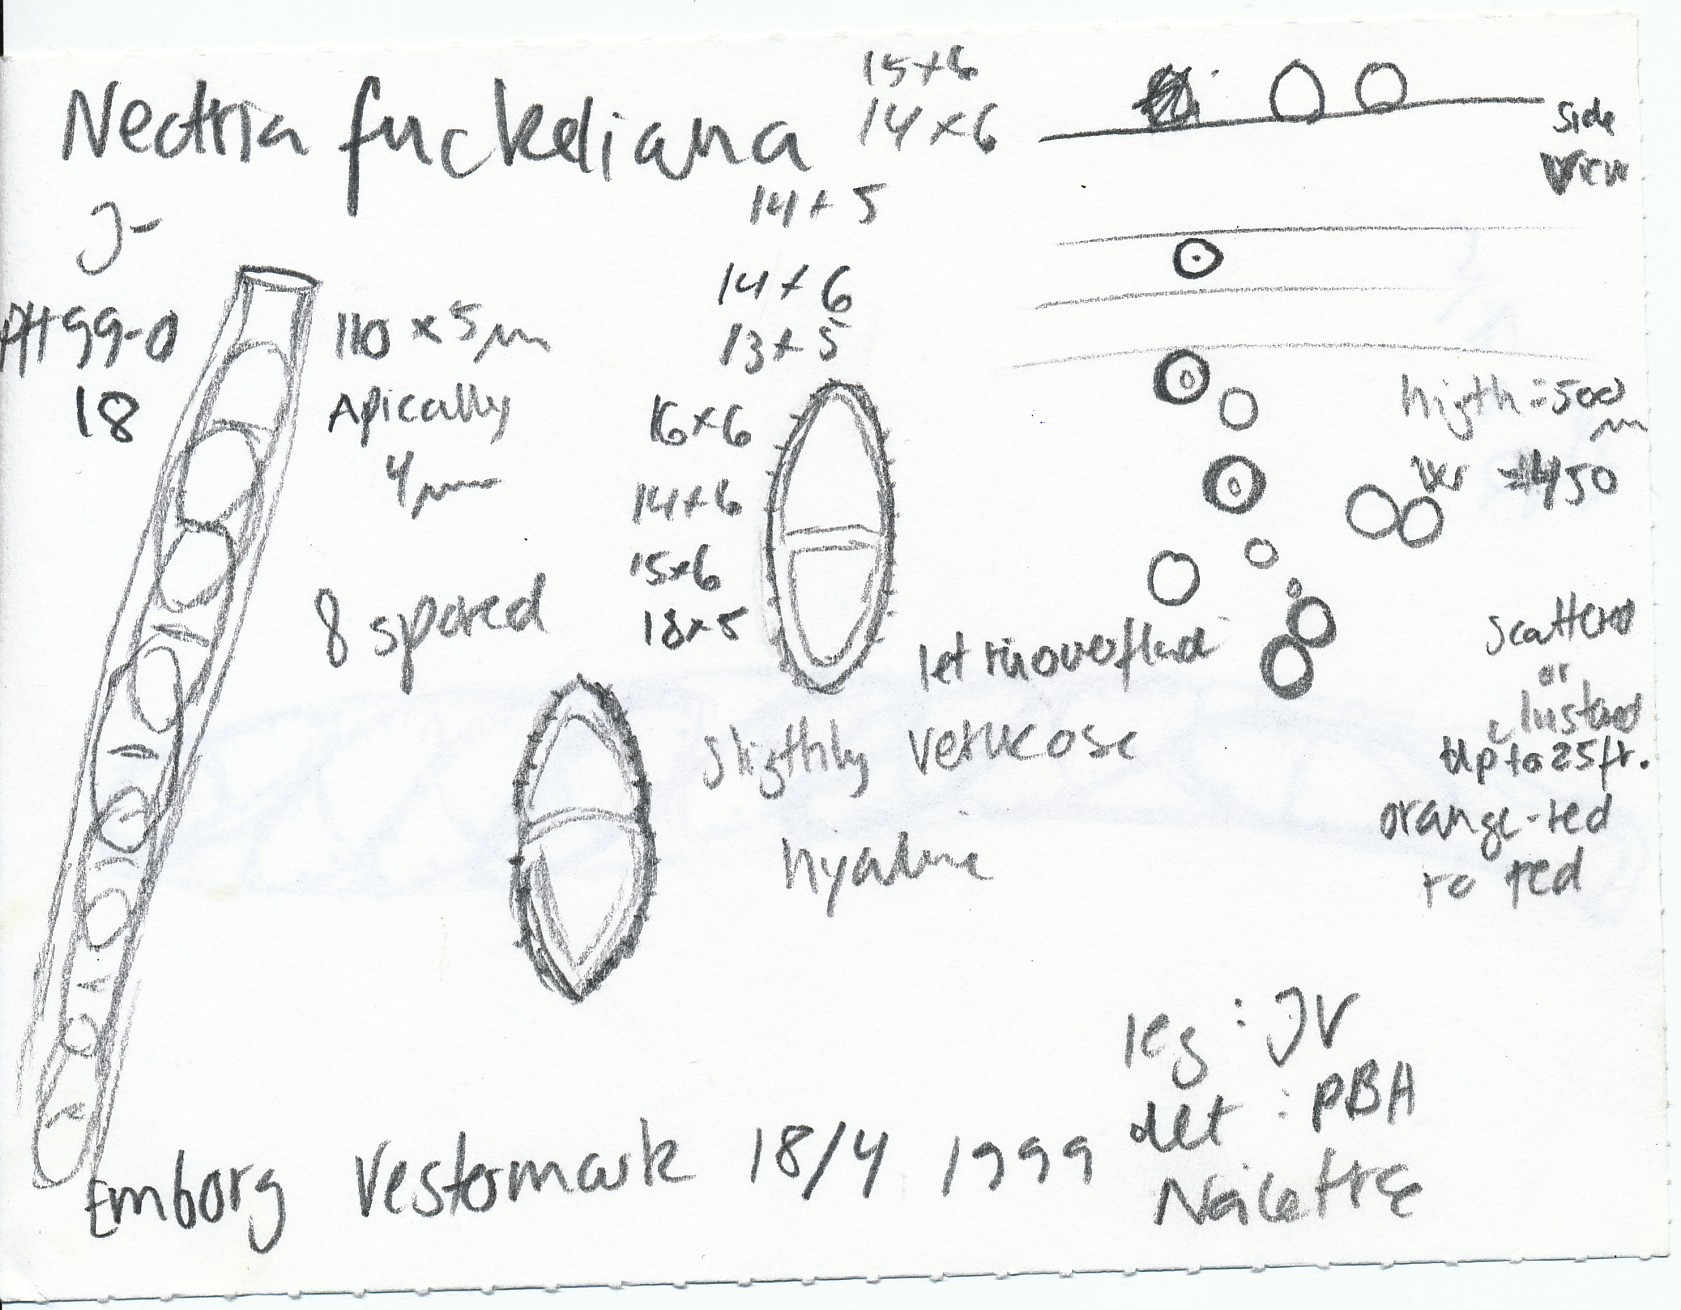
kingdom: Fungi
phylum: Ascomycota
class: Sordariomycetes
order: Hypocreales
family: Nectriaceae
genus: Corinectria
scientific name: Corinectria fuckeliana
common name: grankræft-cinnobersvamp
